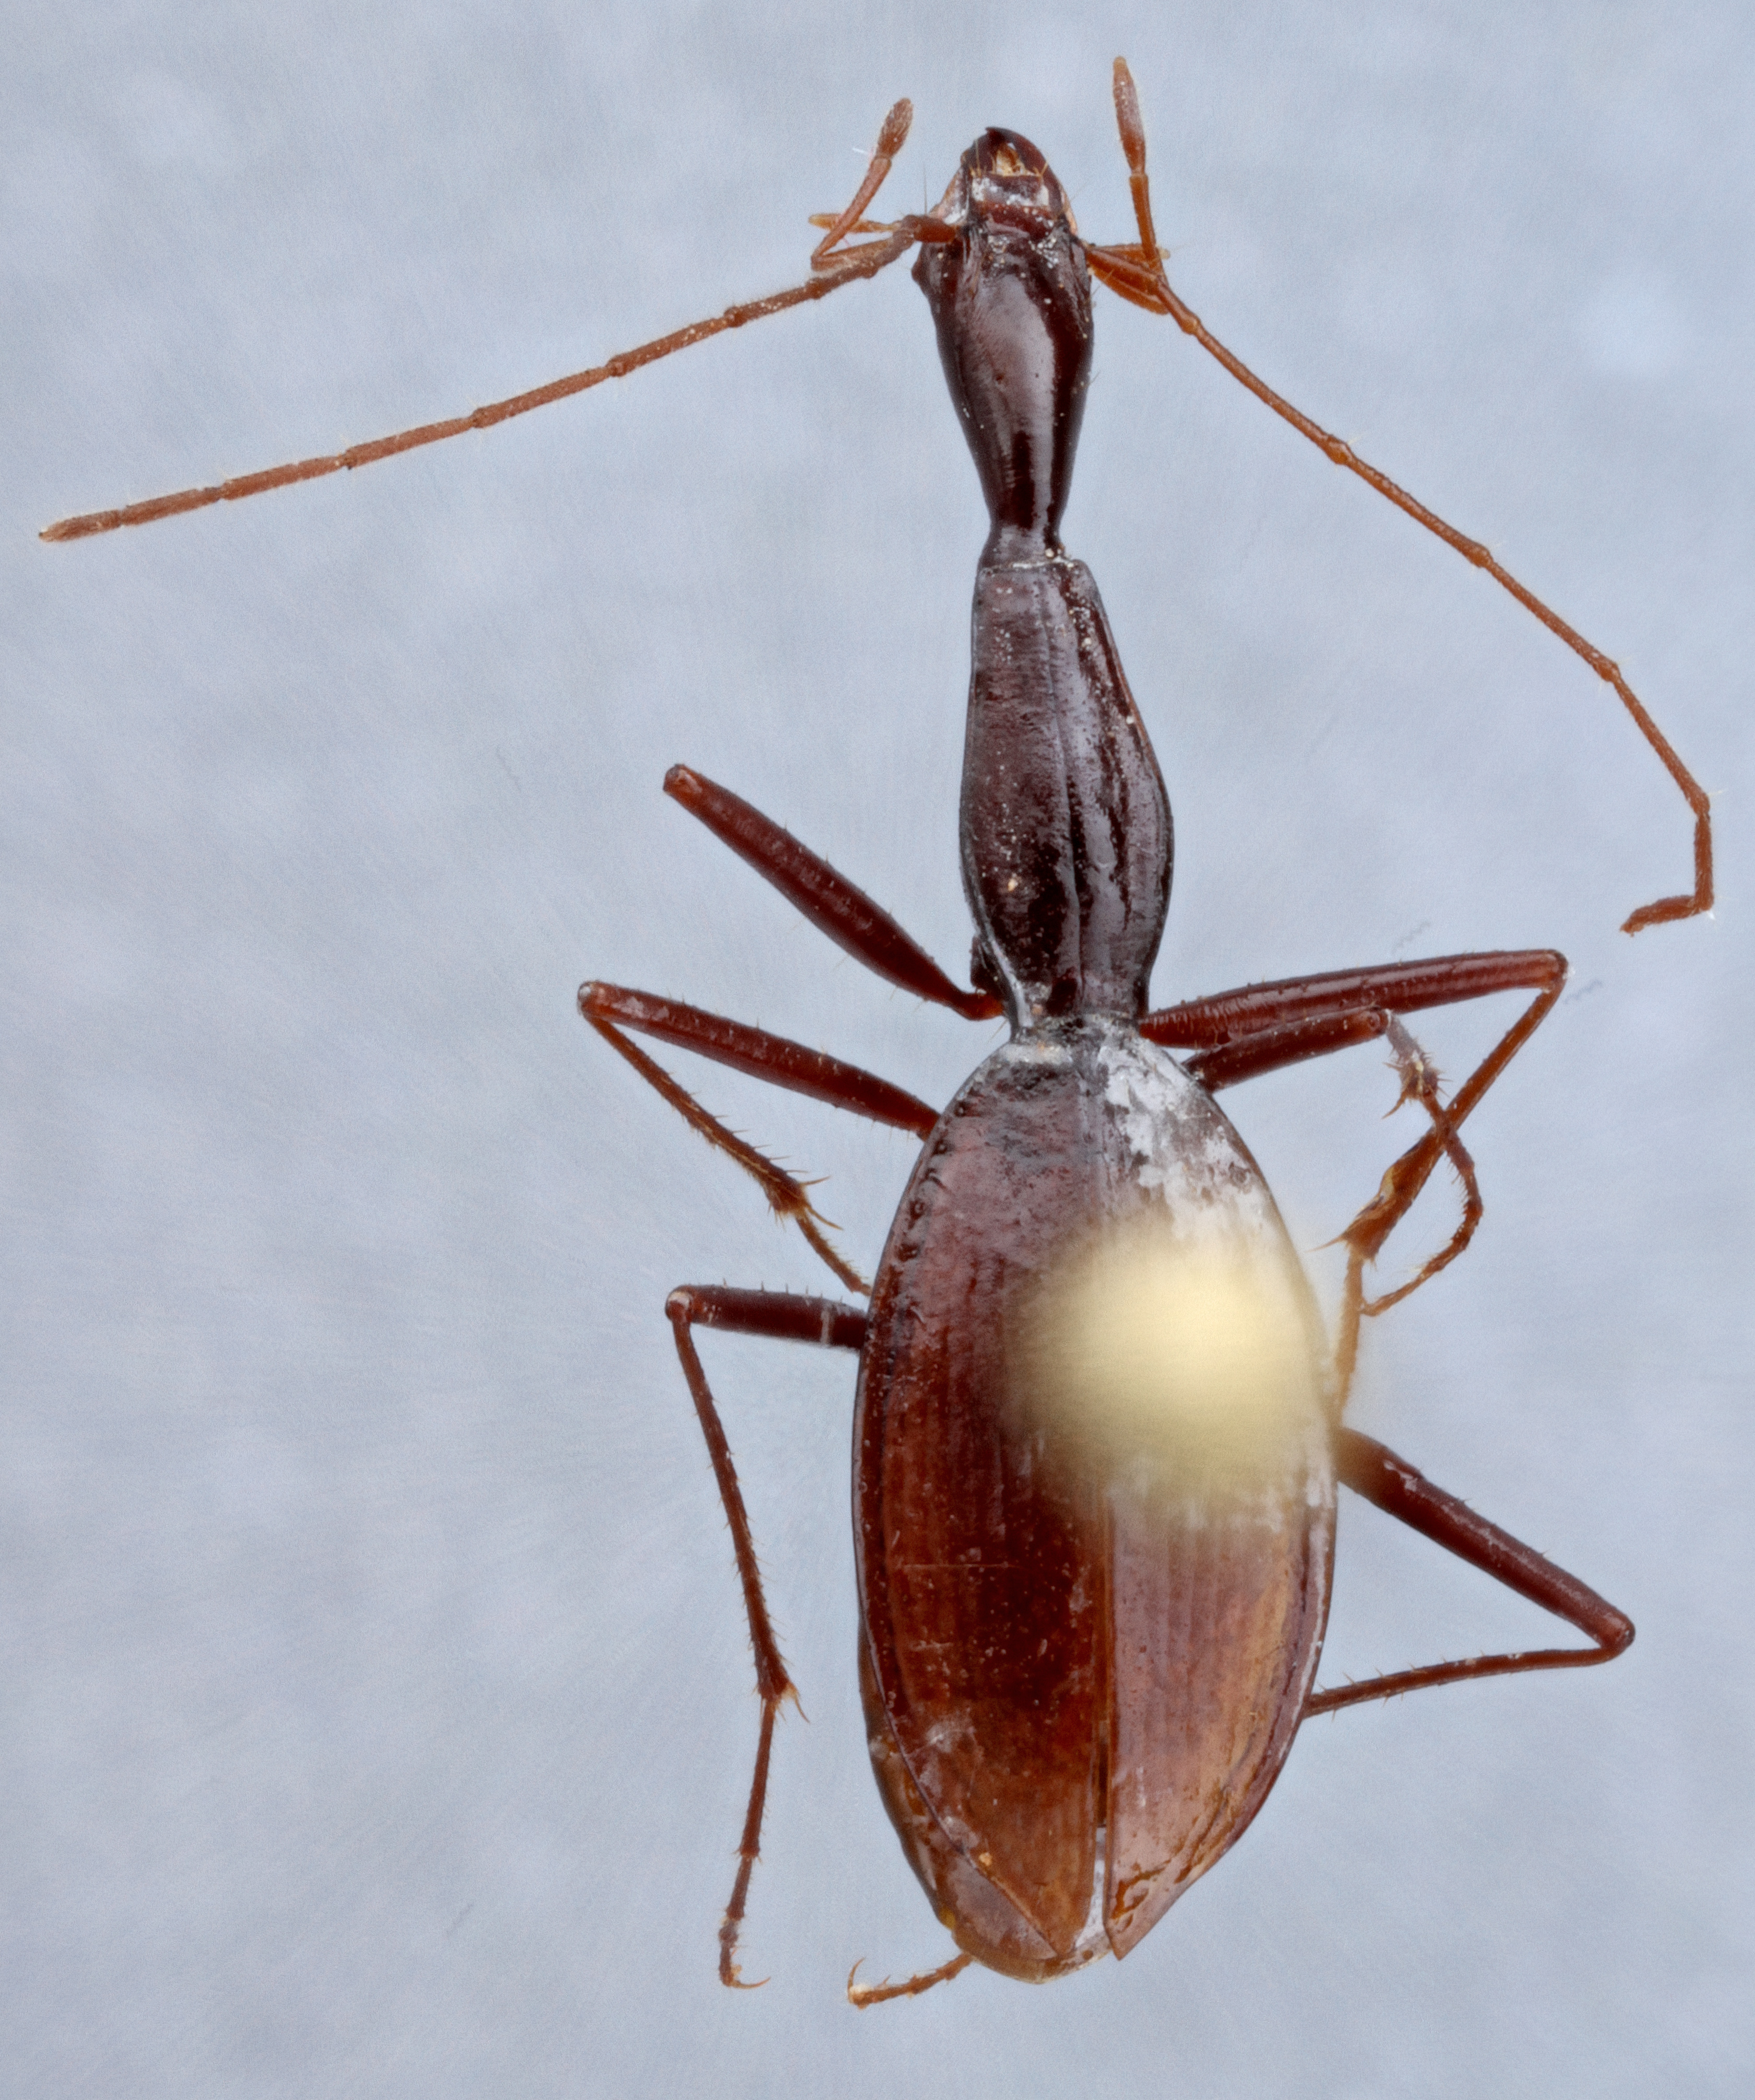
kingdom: Animalia
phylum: Arthropoda
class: Insecta
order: Coleoptera
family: Carabidae
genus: Rhadine
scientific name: Rhadine noctivaga
